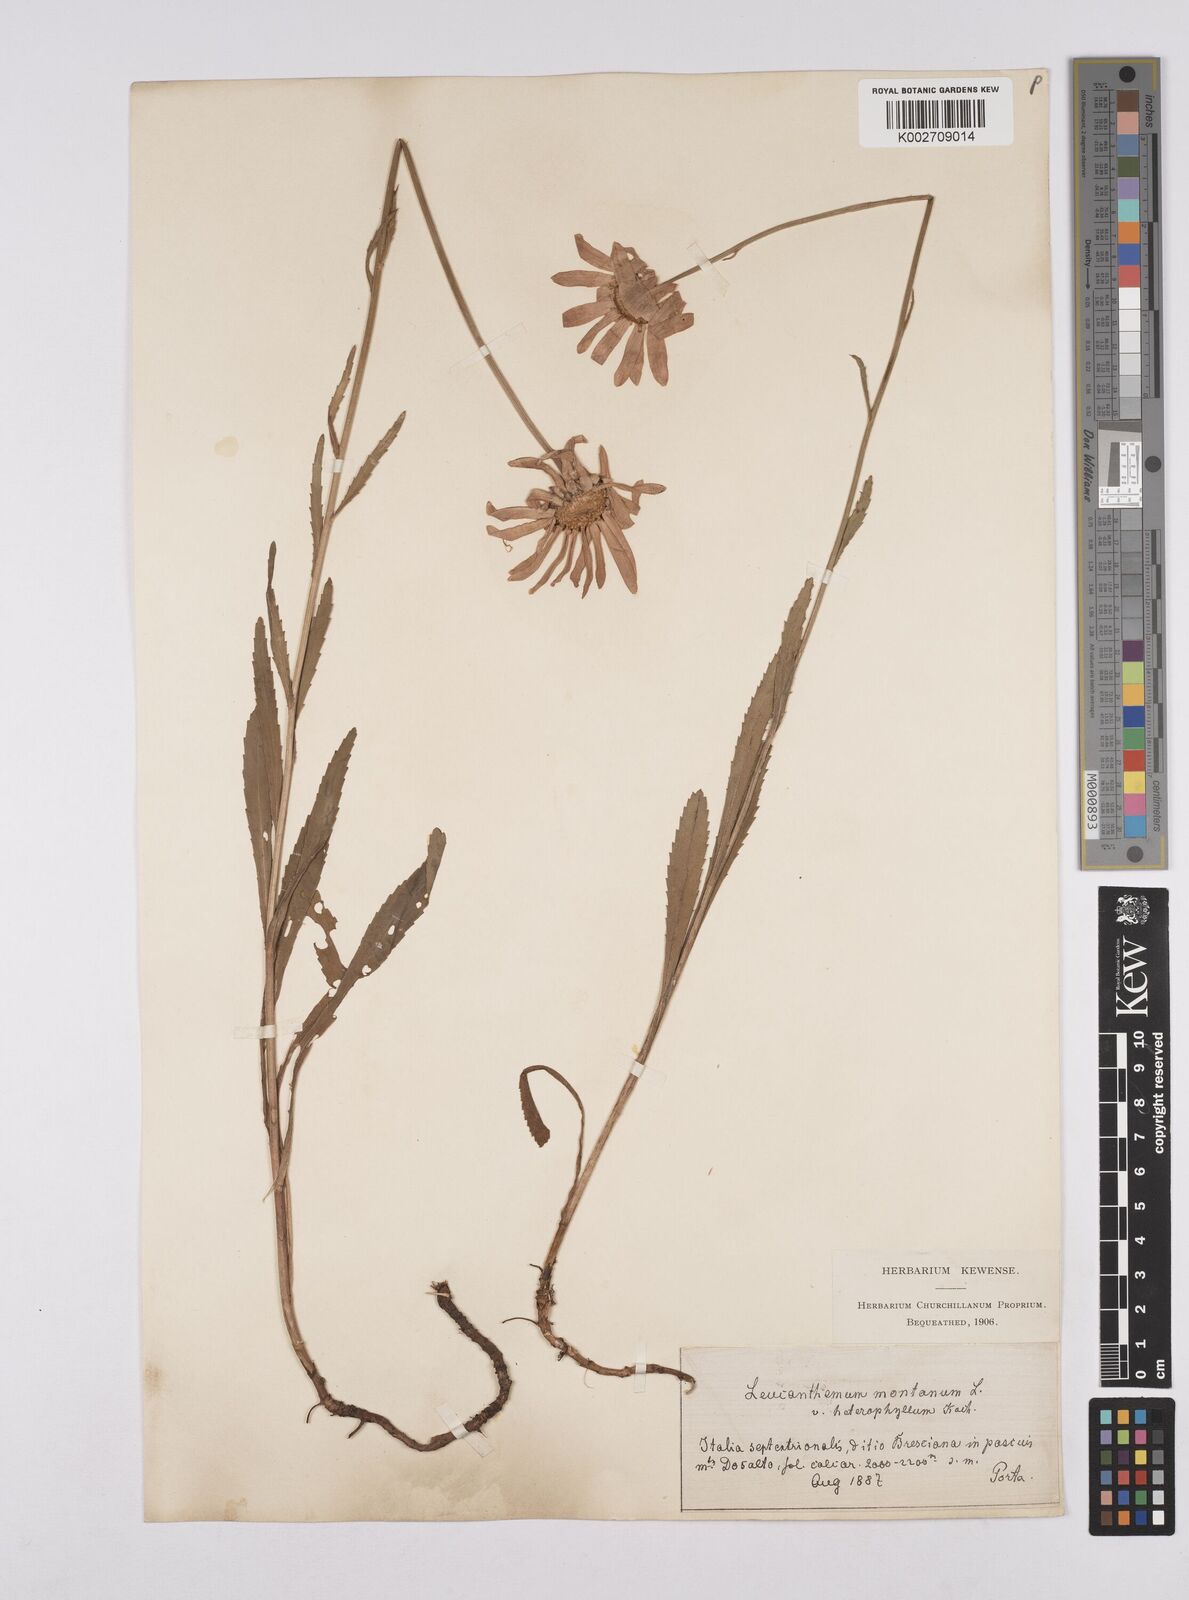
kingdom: Plantae
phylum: Tracheophyta
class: Magnoliopsida
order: Asterales
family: Asteraceae
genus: Leucanthemum
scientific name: Leucanthemum heterophyllum
